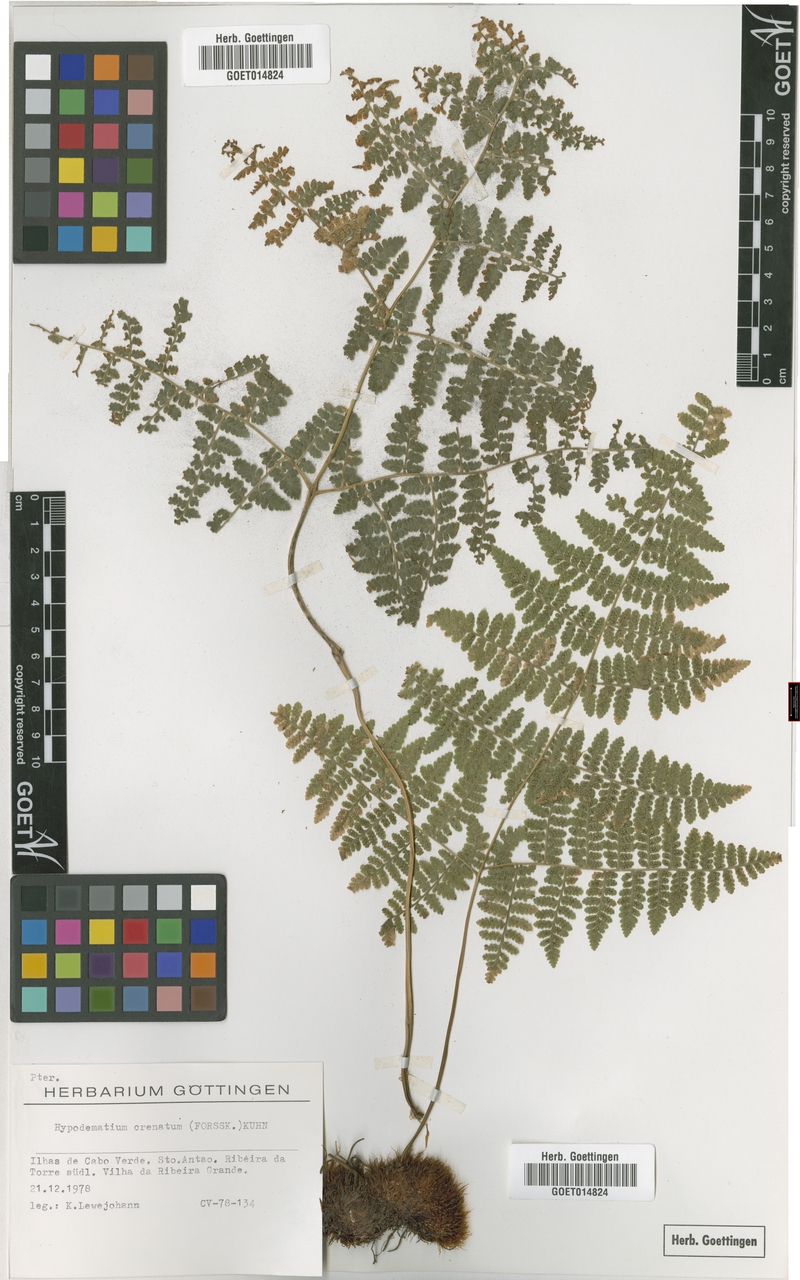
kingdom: Plantae
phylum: Tracheophyta
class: Polypodiopsida
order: Polypodiales
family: Hypodematiaceae
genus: Hypodematium
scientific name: Hypodematium chrysolepis
